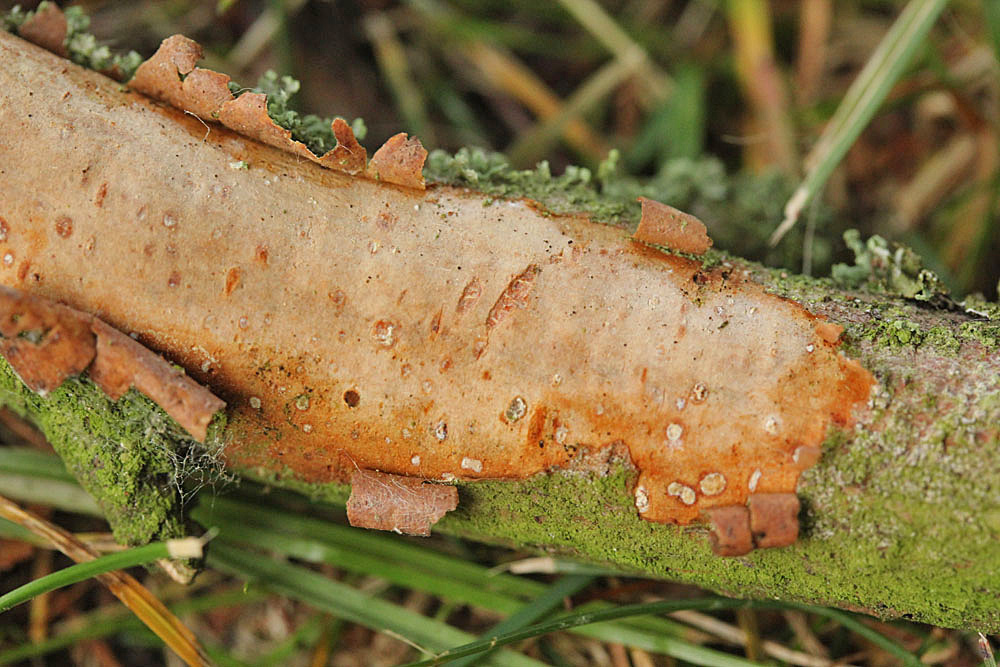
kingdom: Fungi
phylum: Basidiomycota
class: Agaricomycetes
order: Corticiales
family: Vuilleminiaceae
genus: Vuilleminia
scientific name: Vuilleminia cystidiata
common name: tjørne-barksprænger
